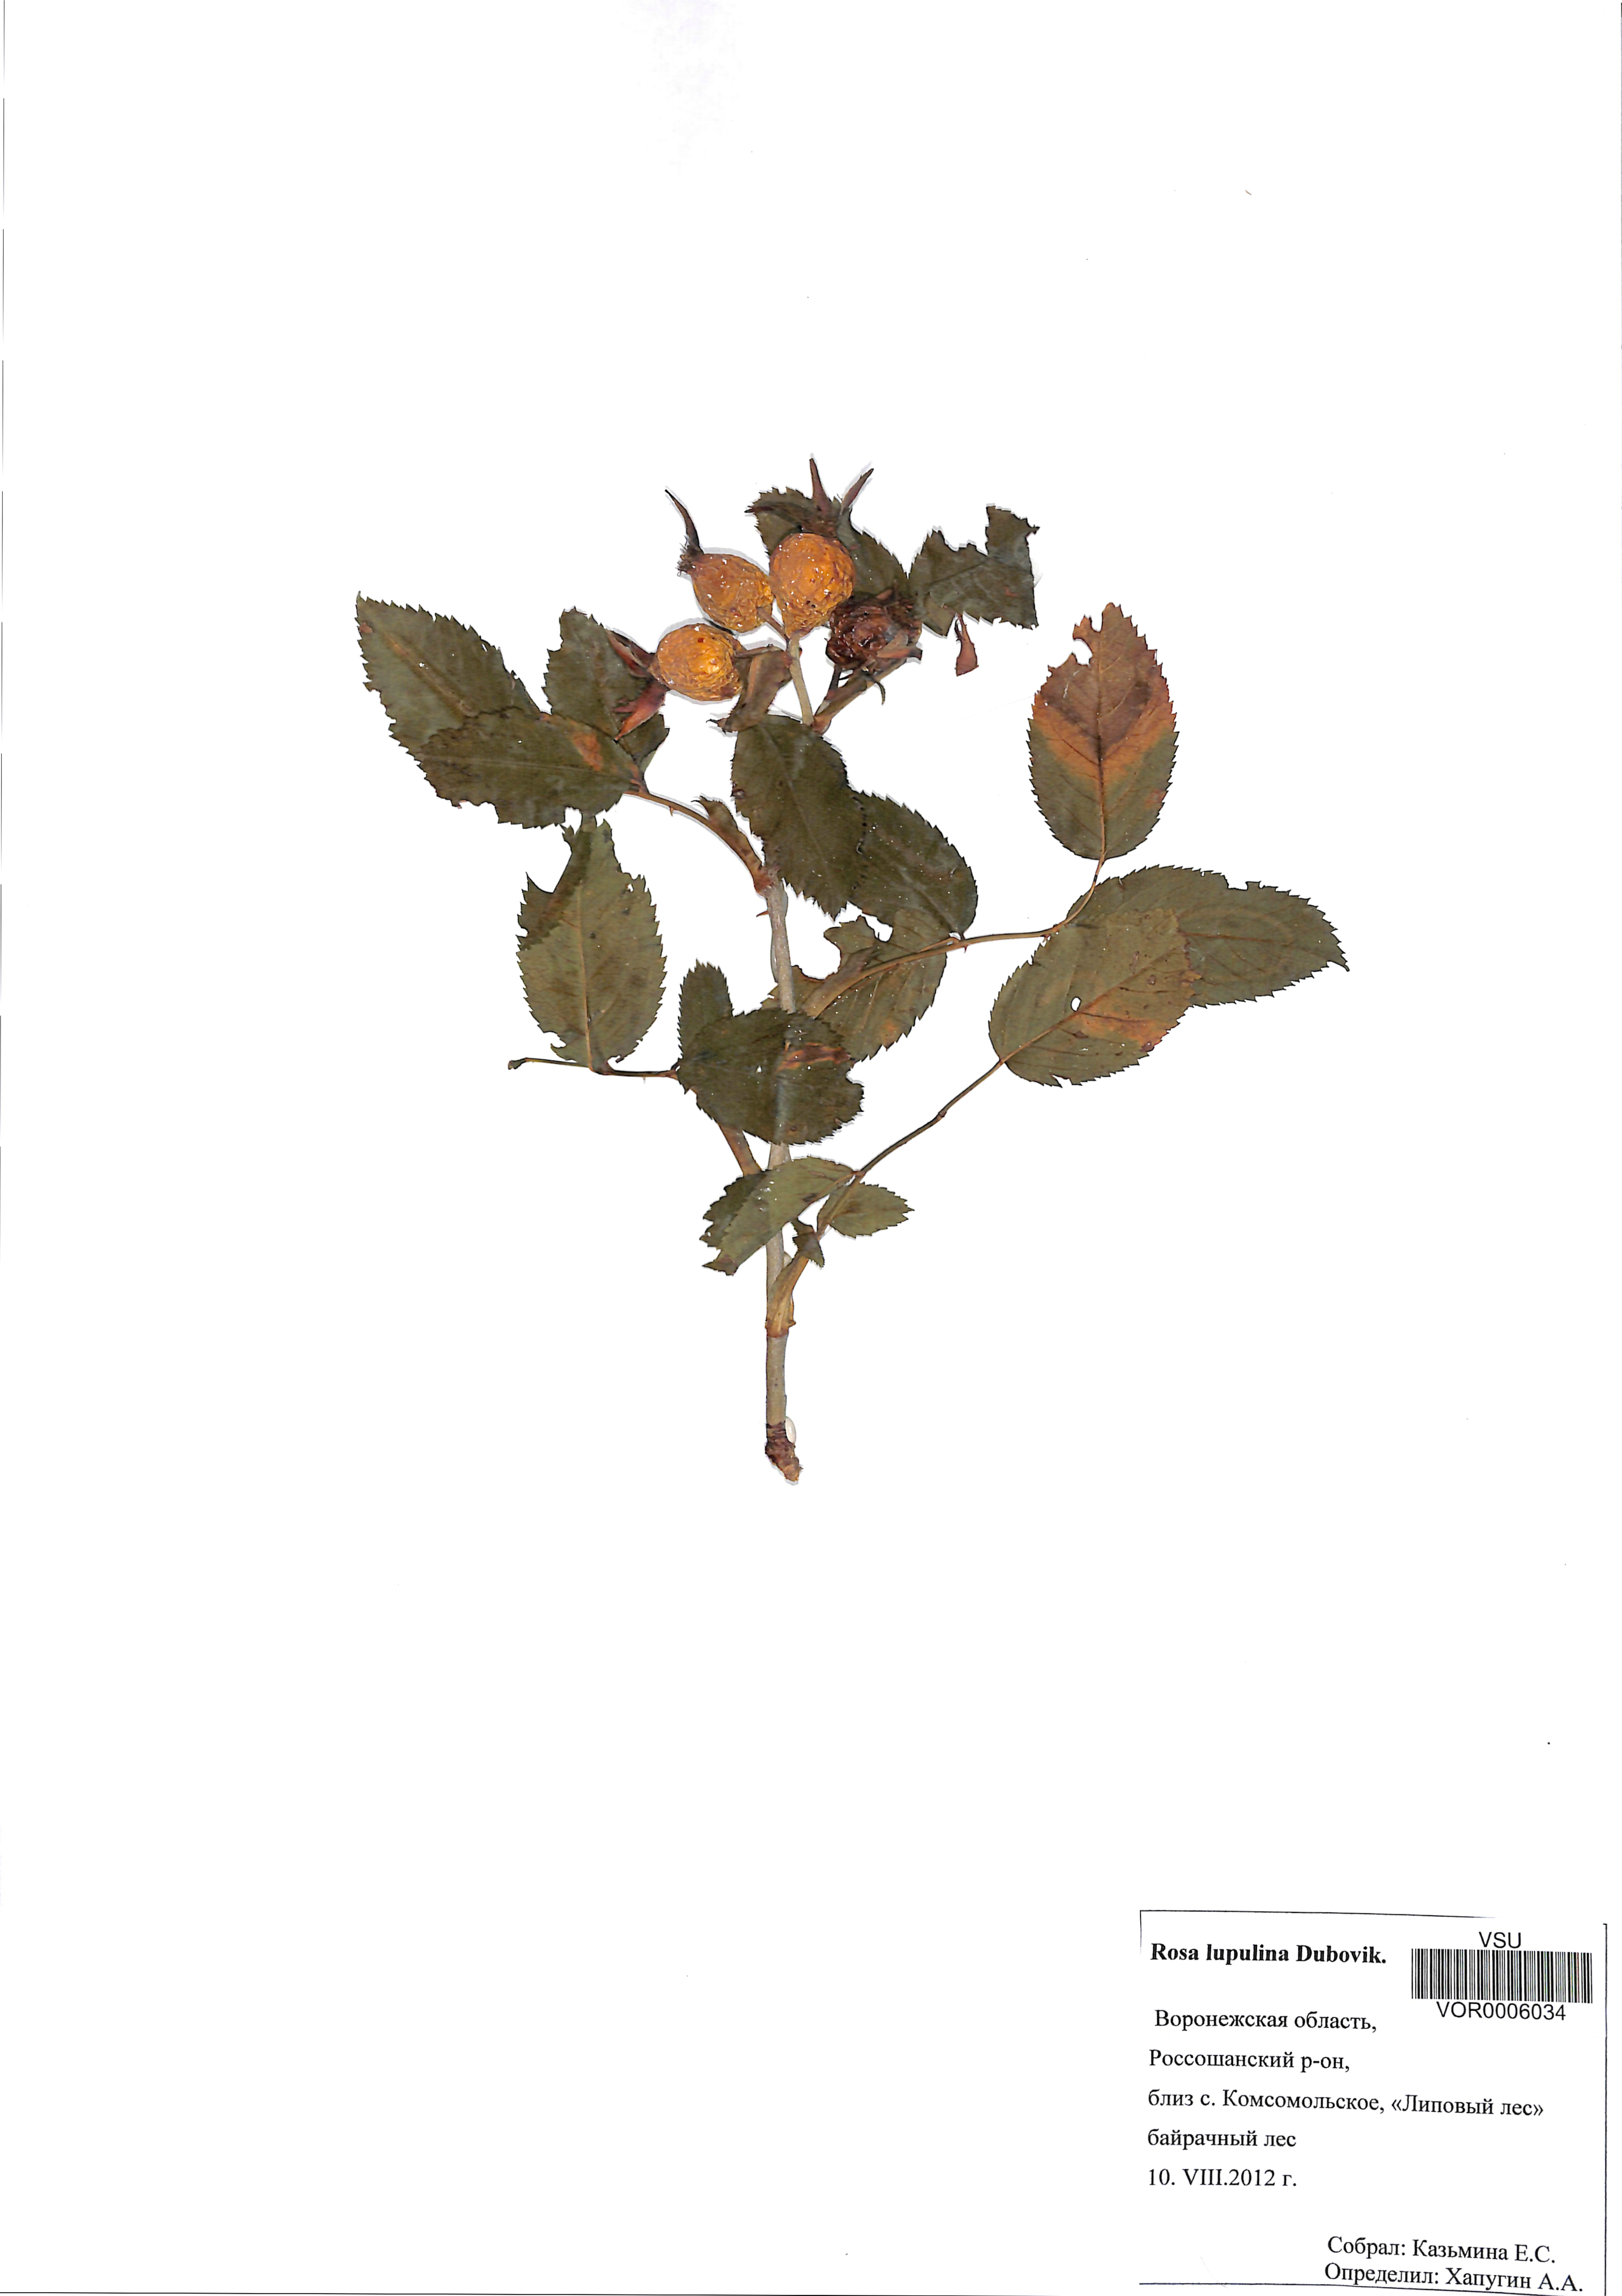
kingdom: Plantae
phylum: Tracheophyta
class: Magnoliopsida
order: Rosales
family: Rosaceae
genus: Rosa
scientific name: Rosa
